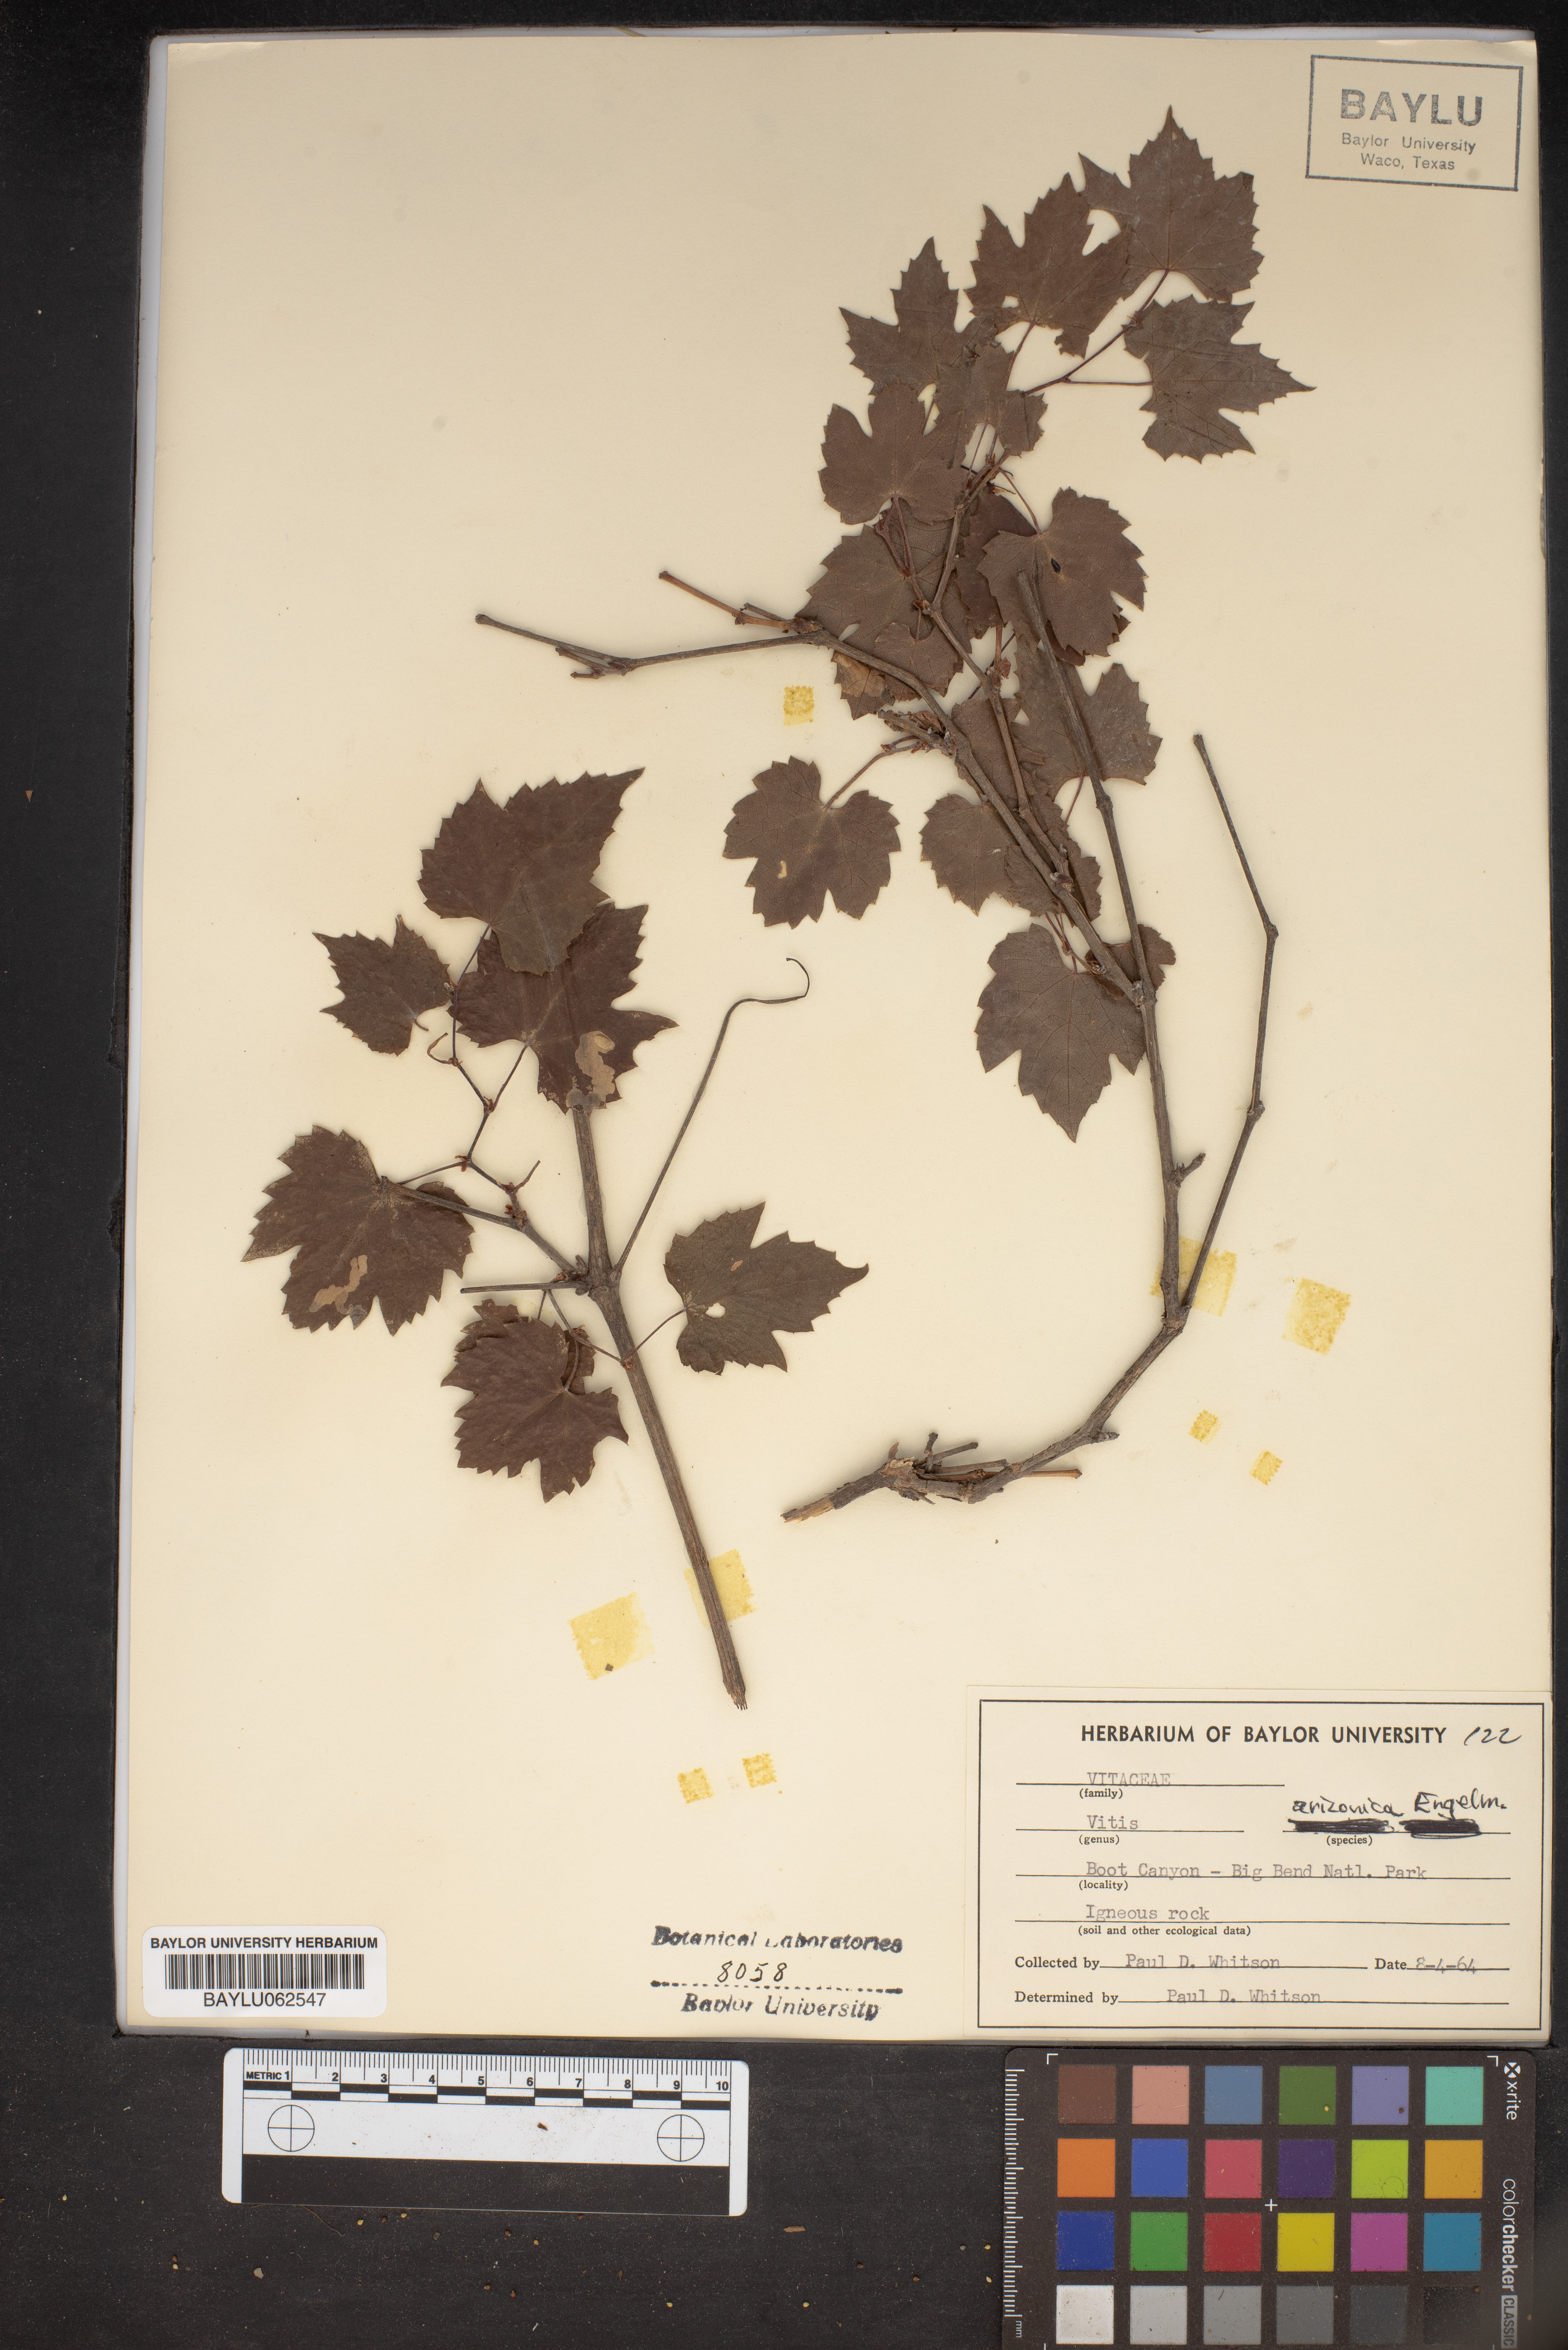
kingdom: Plantae
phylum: Tracheophyta
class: Magnoliopsida
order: Vitales
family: Vitaceae
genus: Vitis
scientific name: Vitis arizonica
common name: Canyon grape
